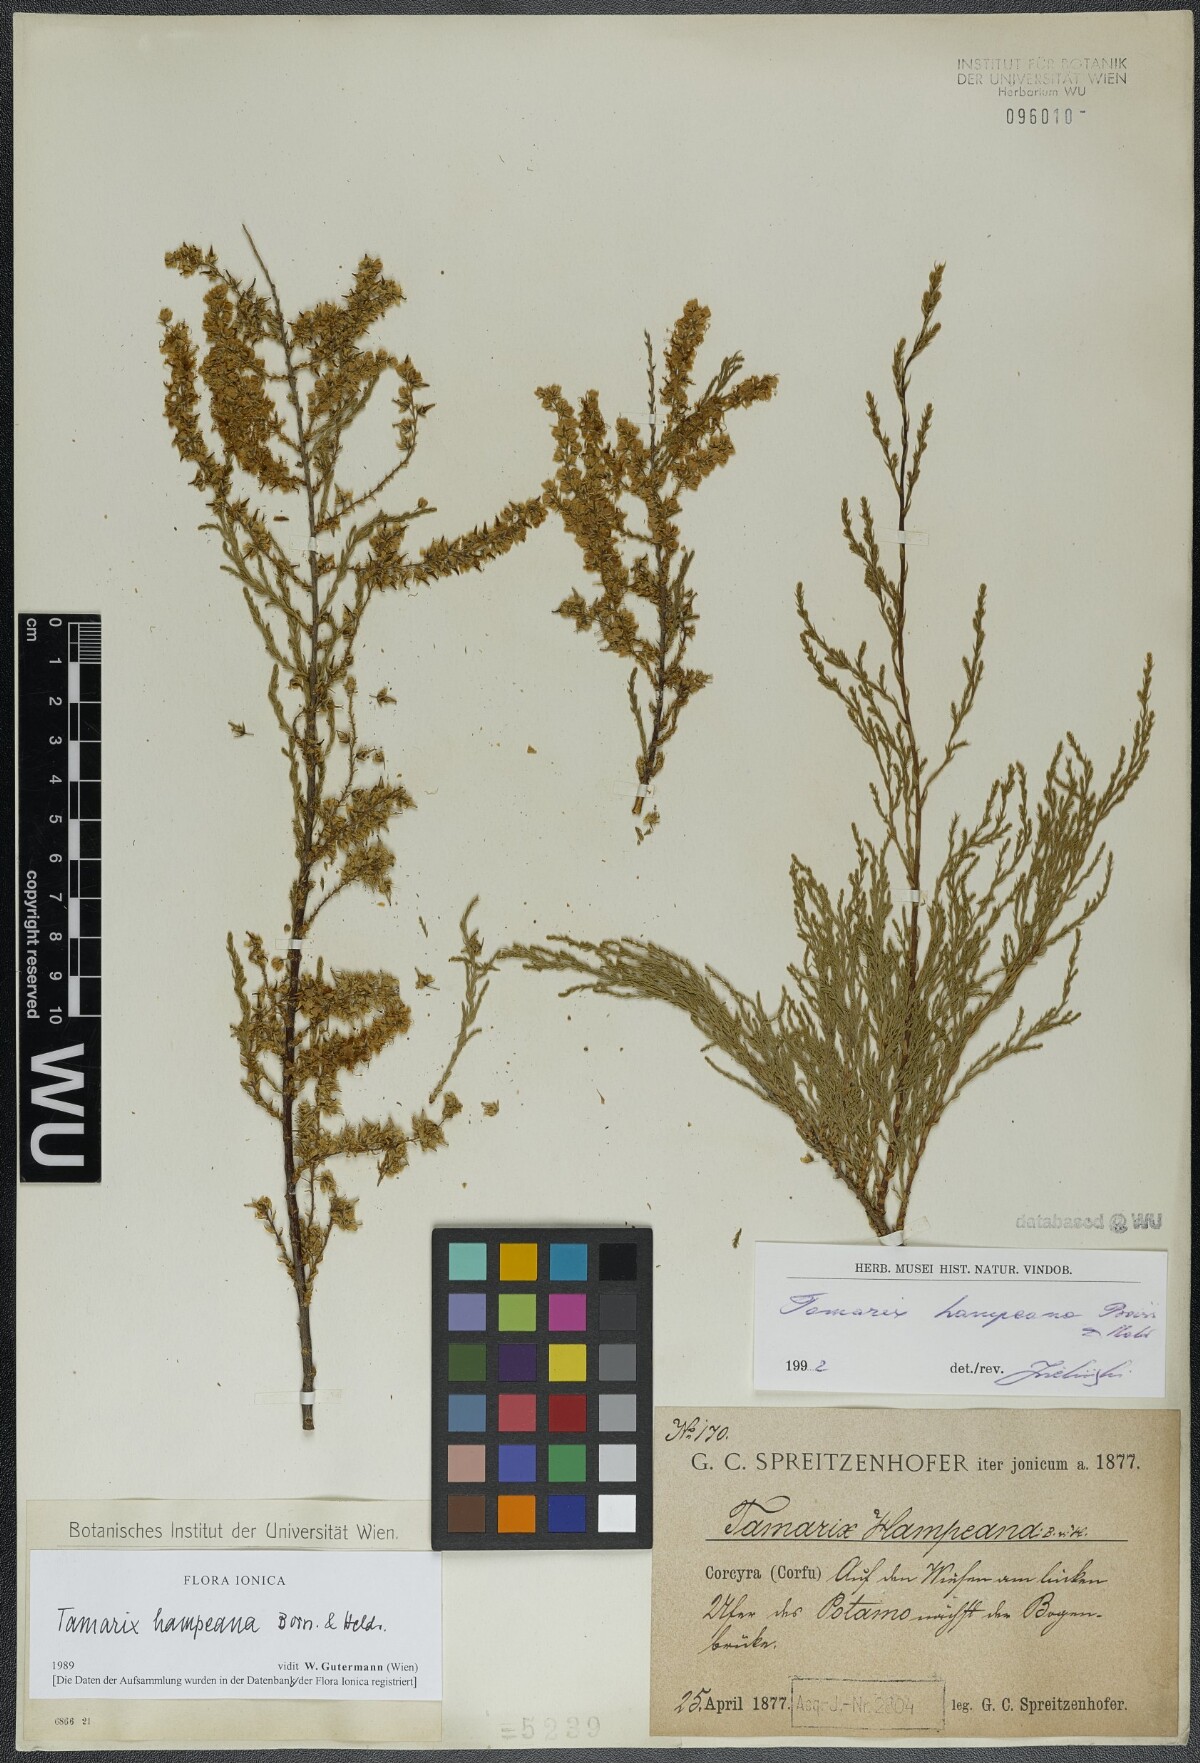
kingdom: Plantae
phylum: Tracheophyta
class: Magnoliopsida
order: Caryophyllales
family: Tamaricaceae
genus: Tamarix
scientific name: Tamarix hampeana
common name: Hampe’s tamarisk
